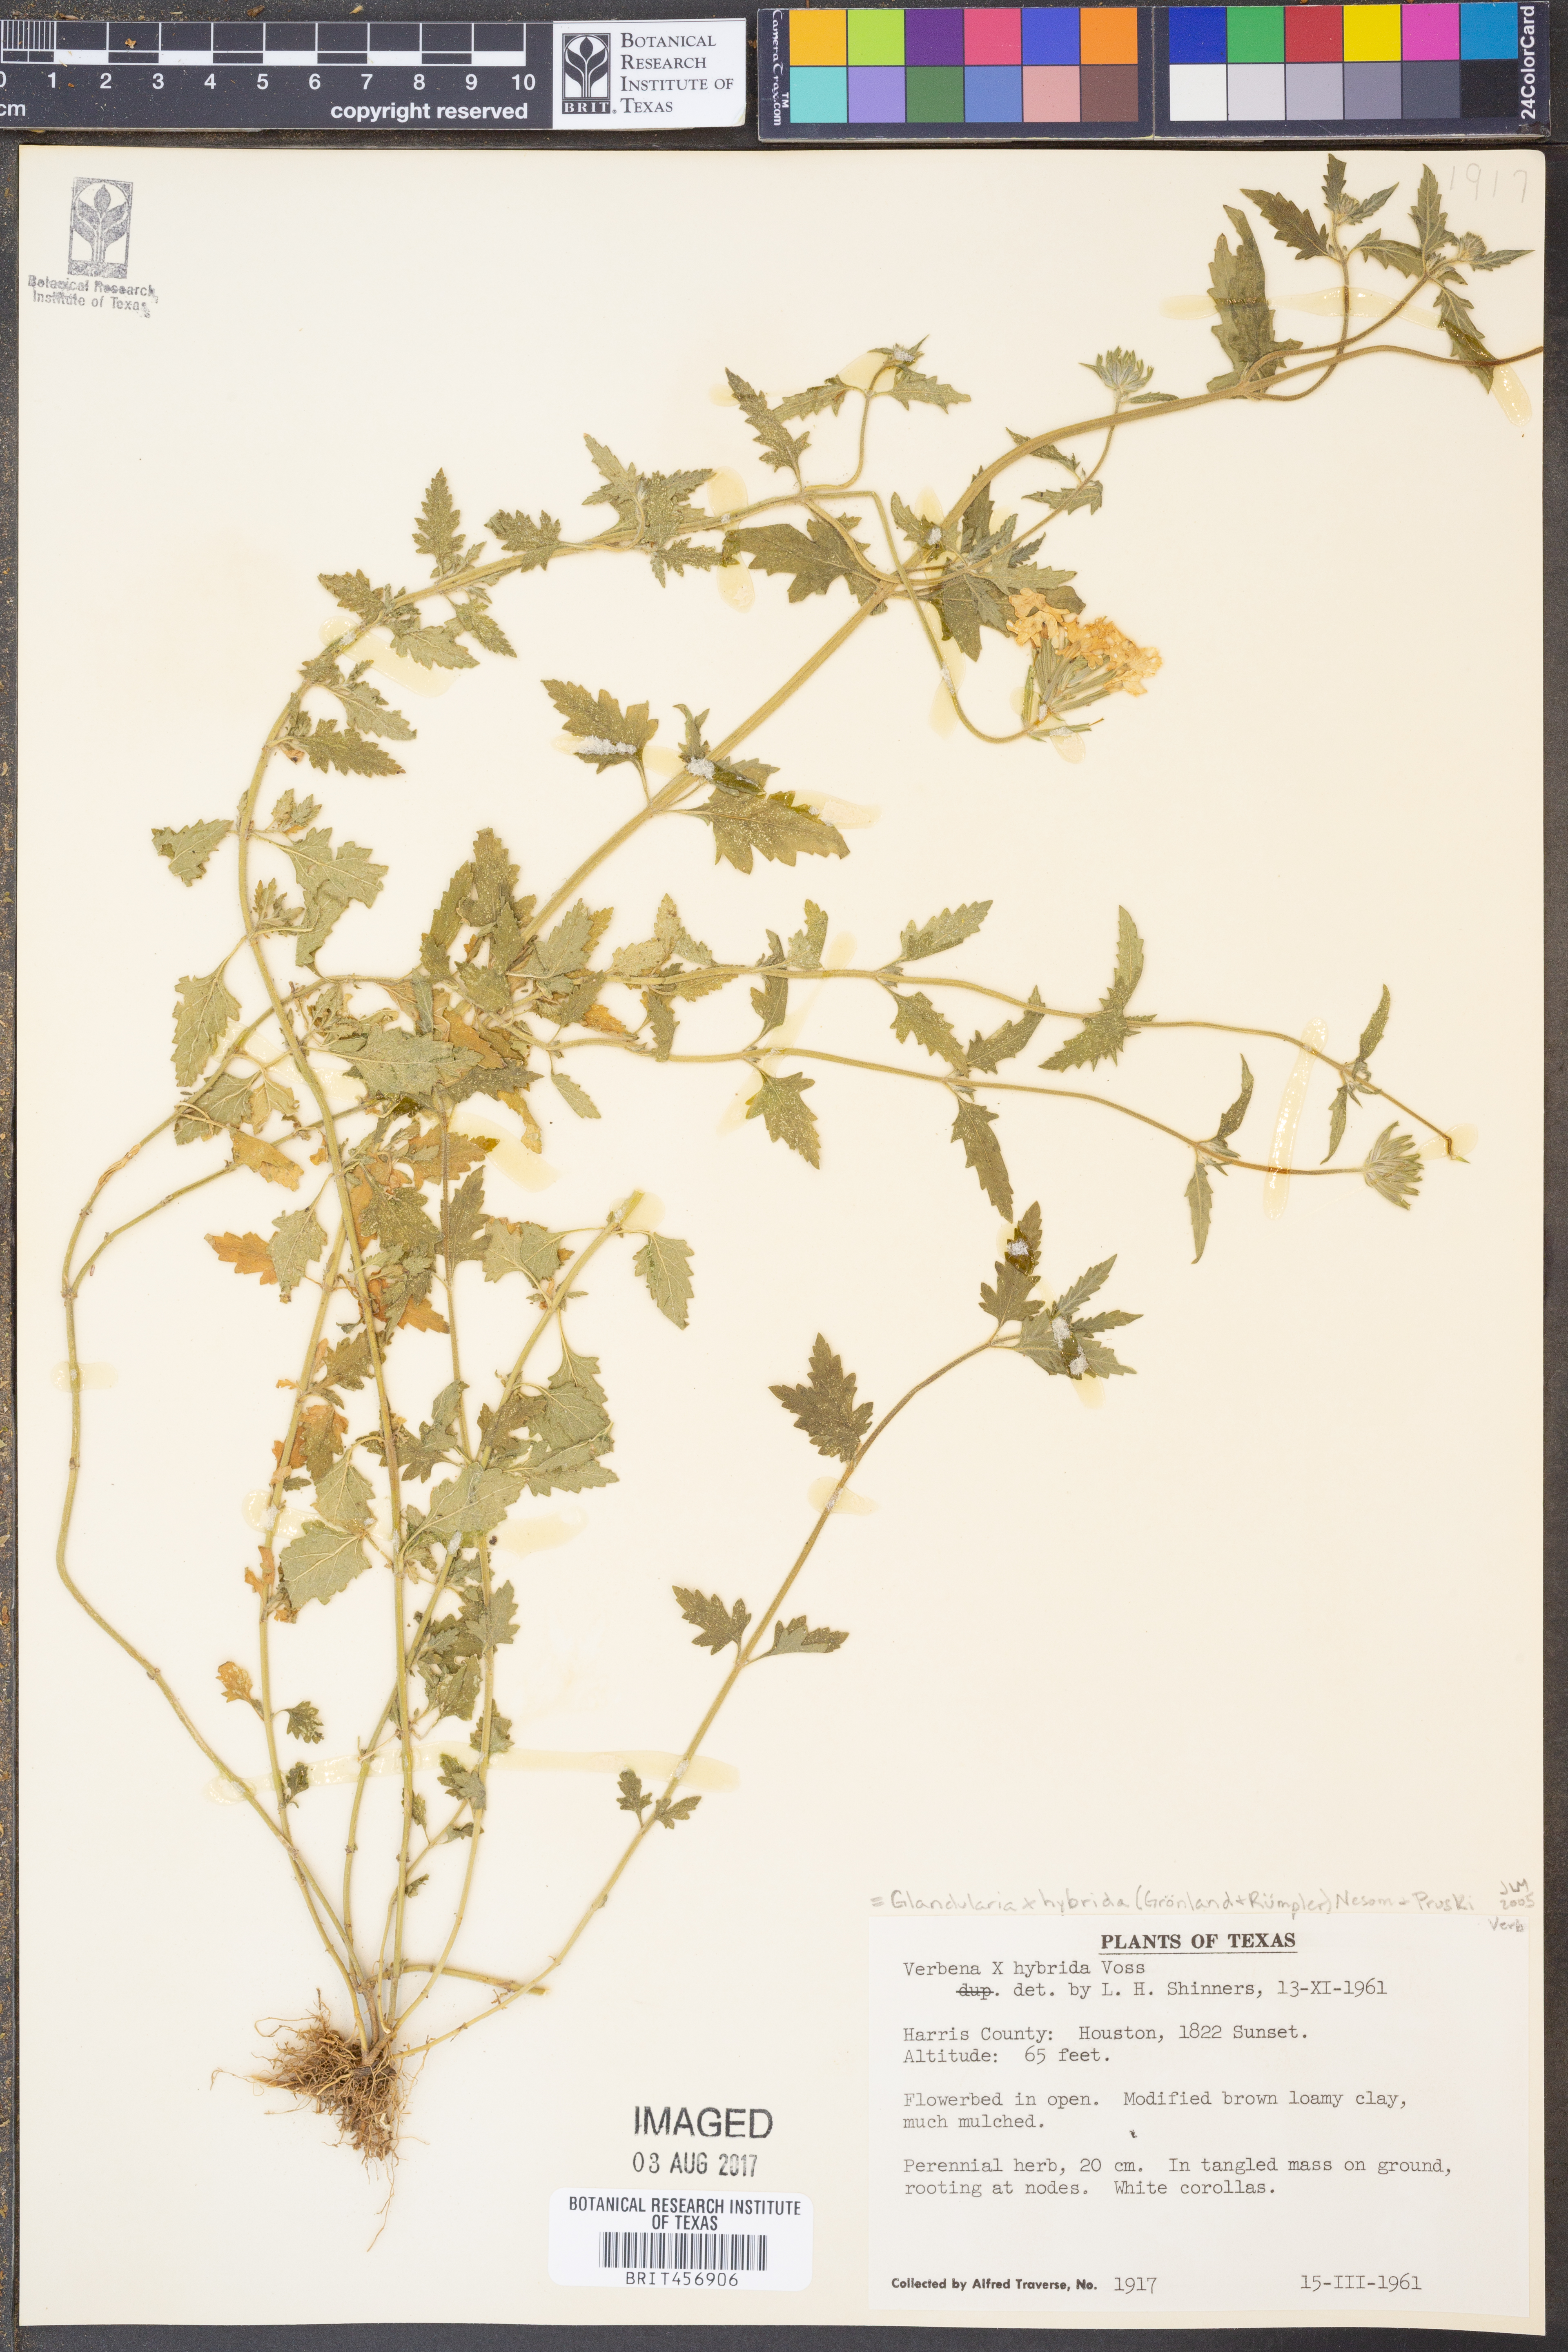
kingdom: Plantae
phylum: Tracheophyta
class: Magnoliopsida
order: Lamiales
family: Verbenaceae
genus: Verbena
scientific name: Verbena hybrida
